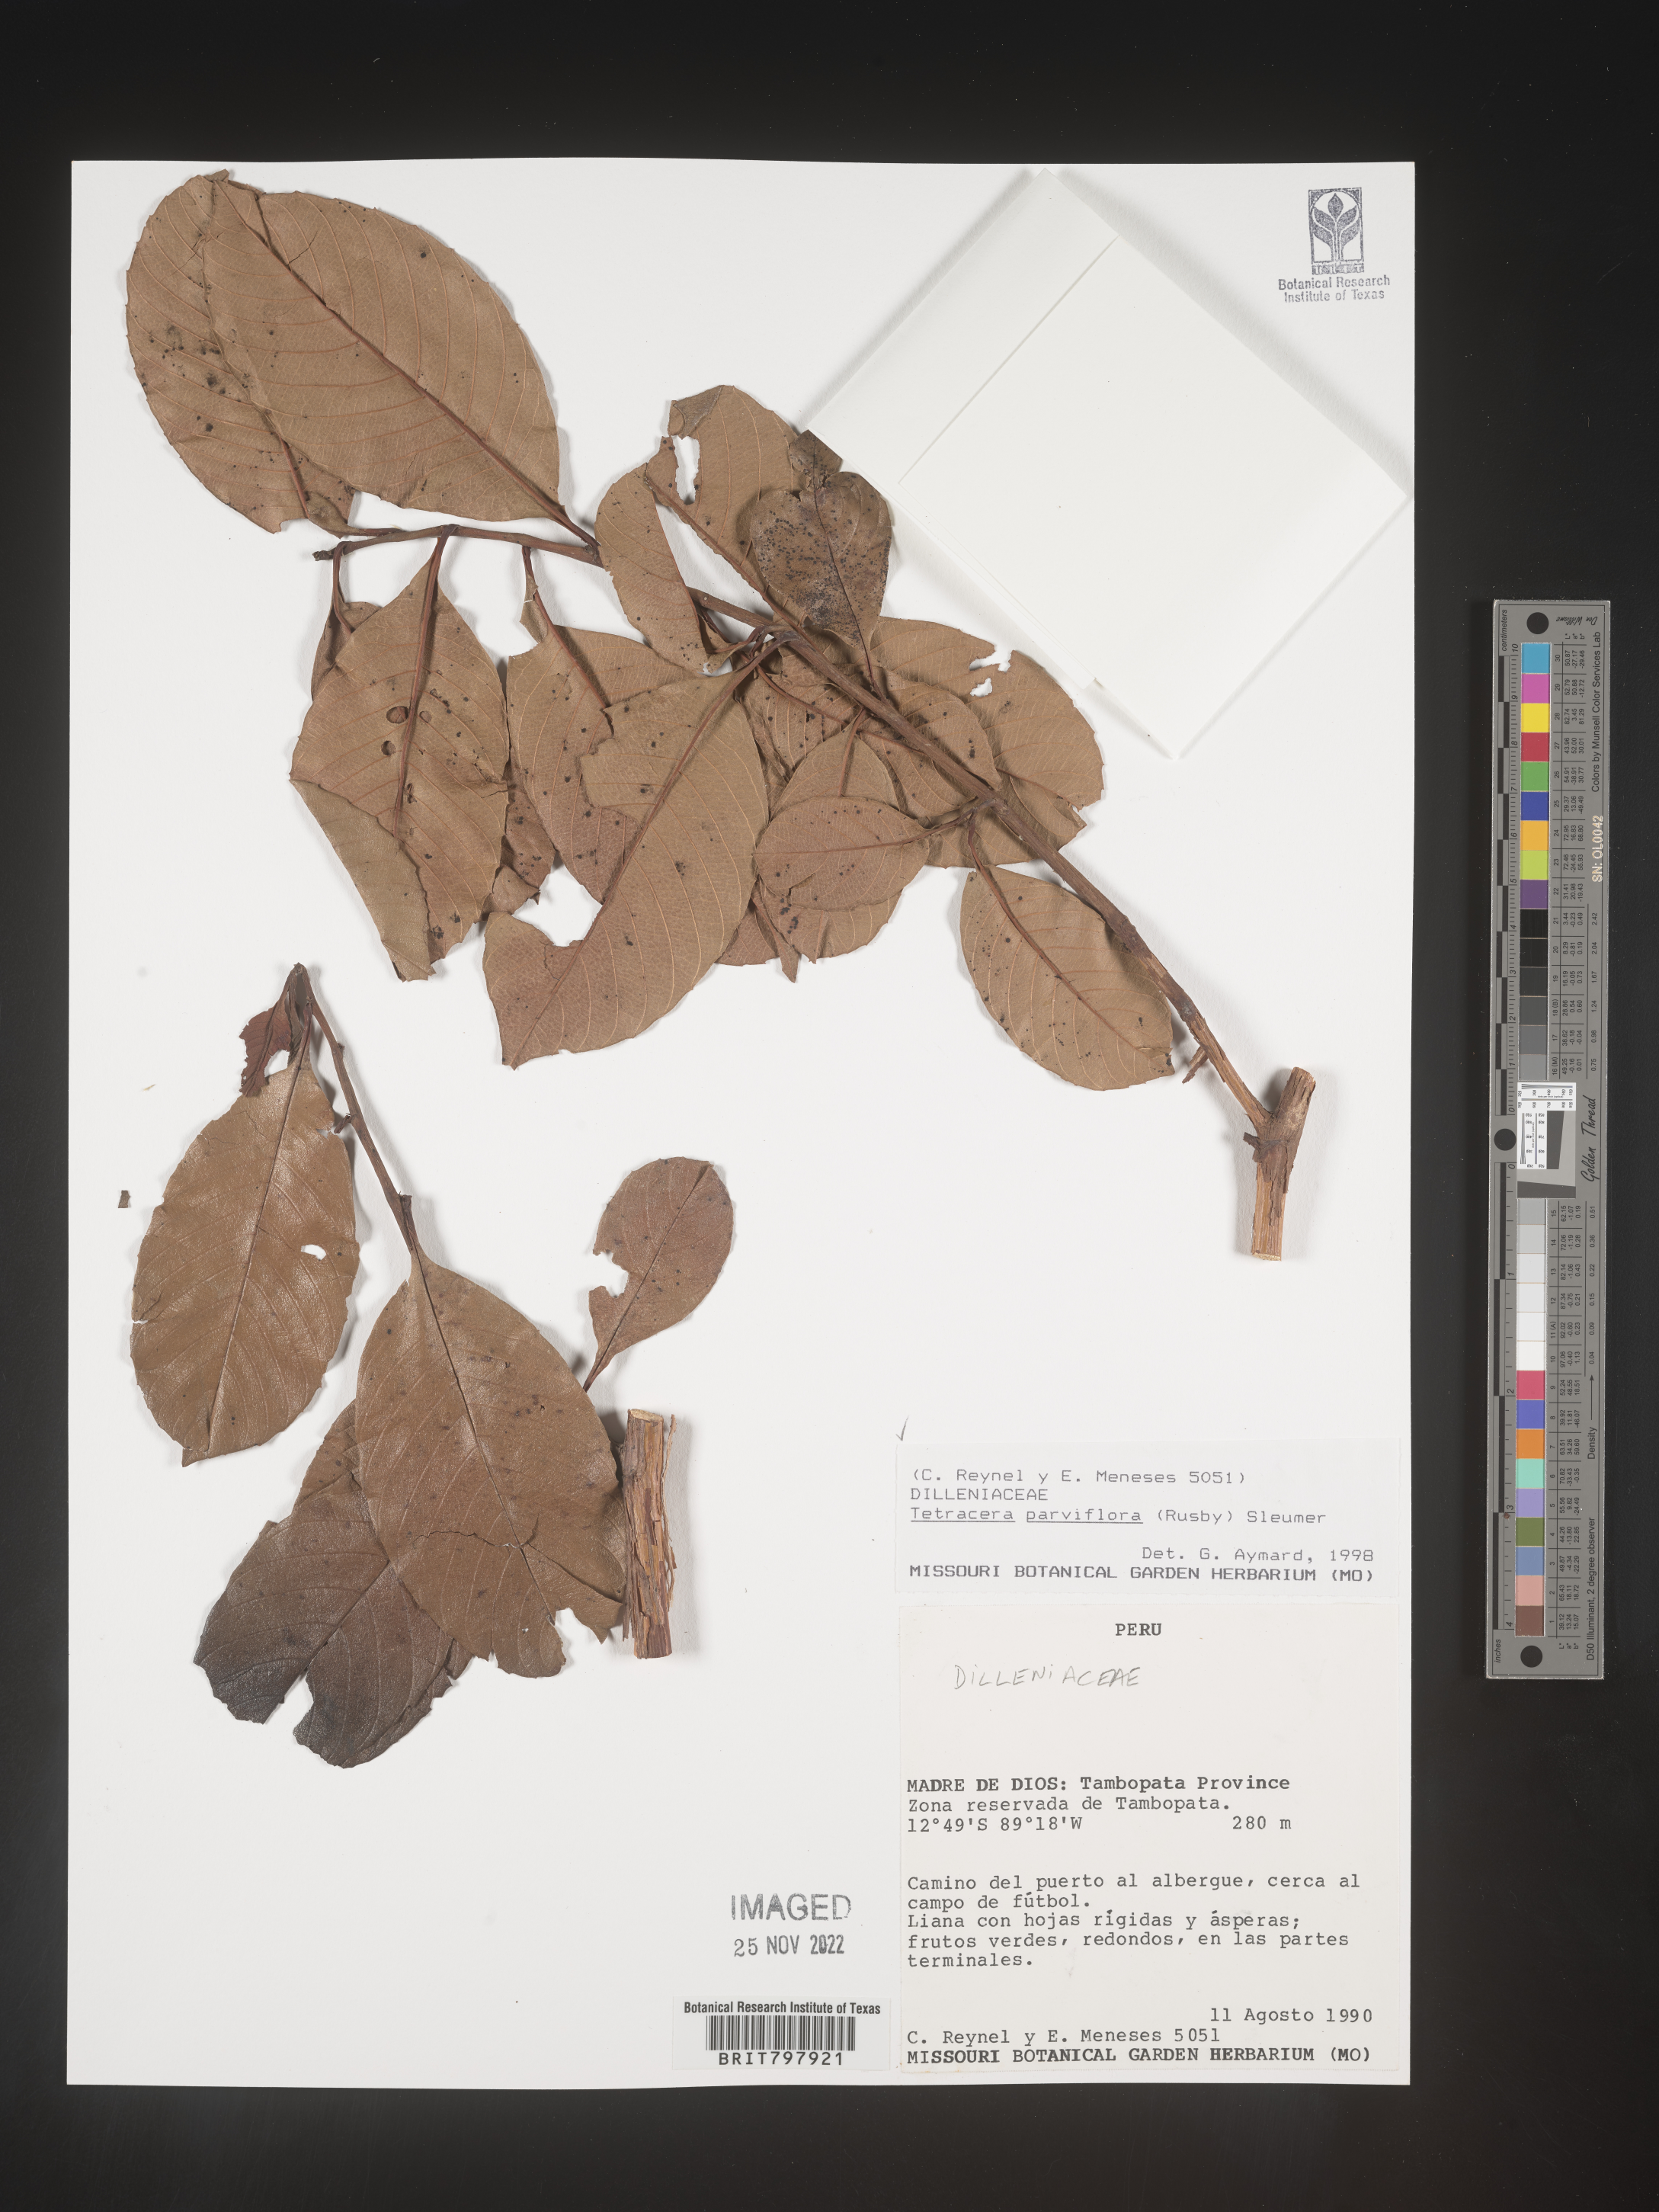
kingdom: Plantae
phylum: Tracheophyta
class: Magnoliopsida
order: Dilleniales
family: Dilleniaceae
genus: Tetracera
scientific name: Tetracera
